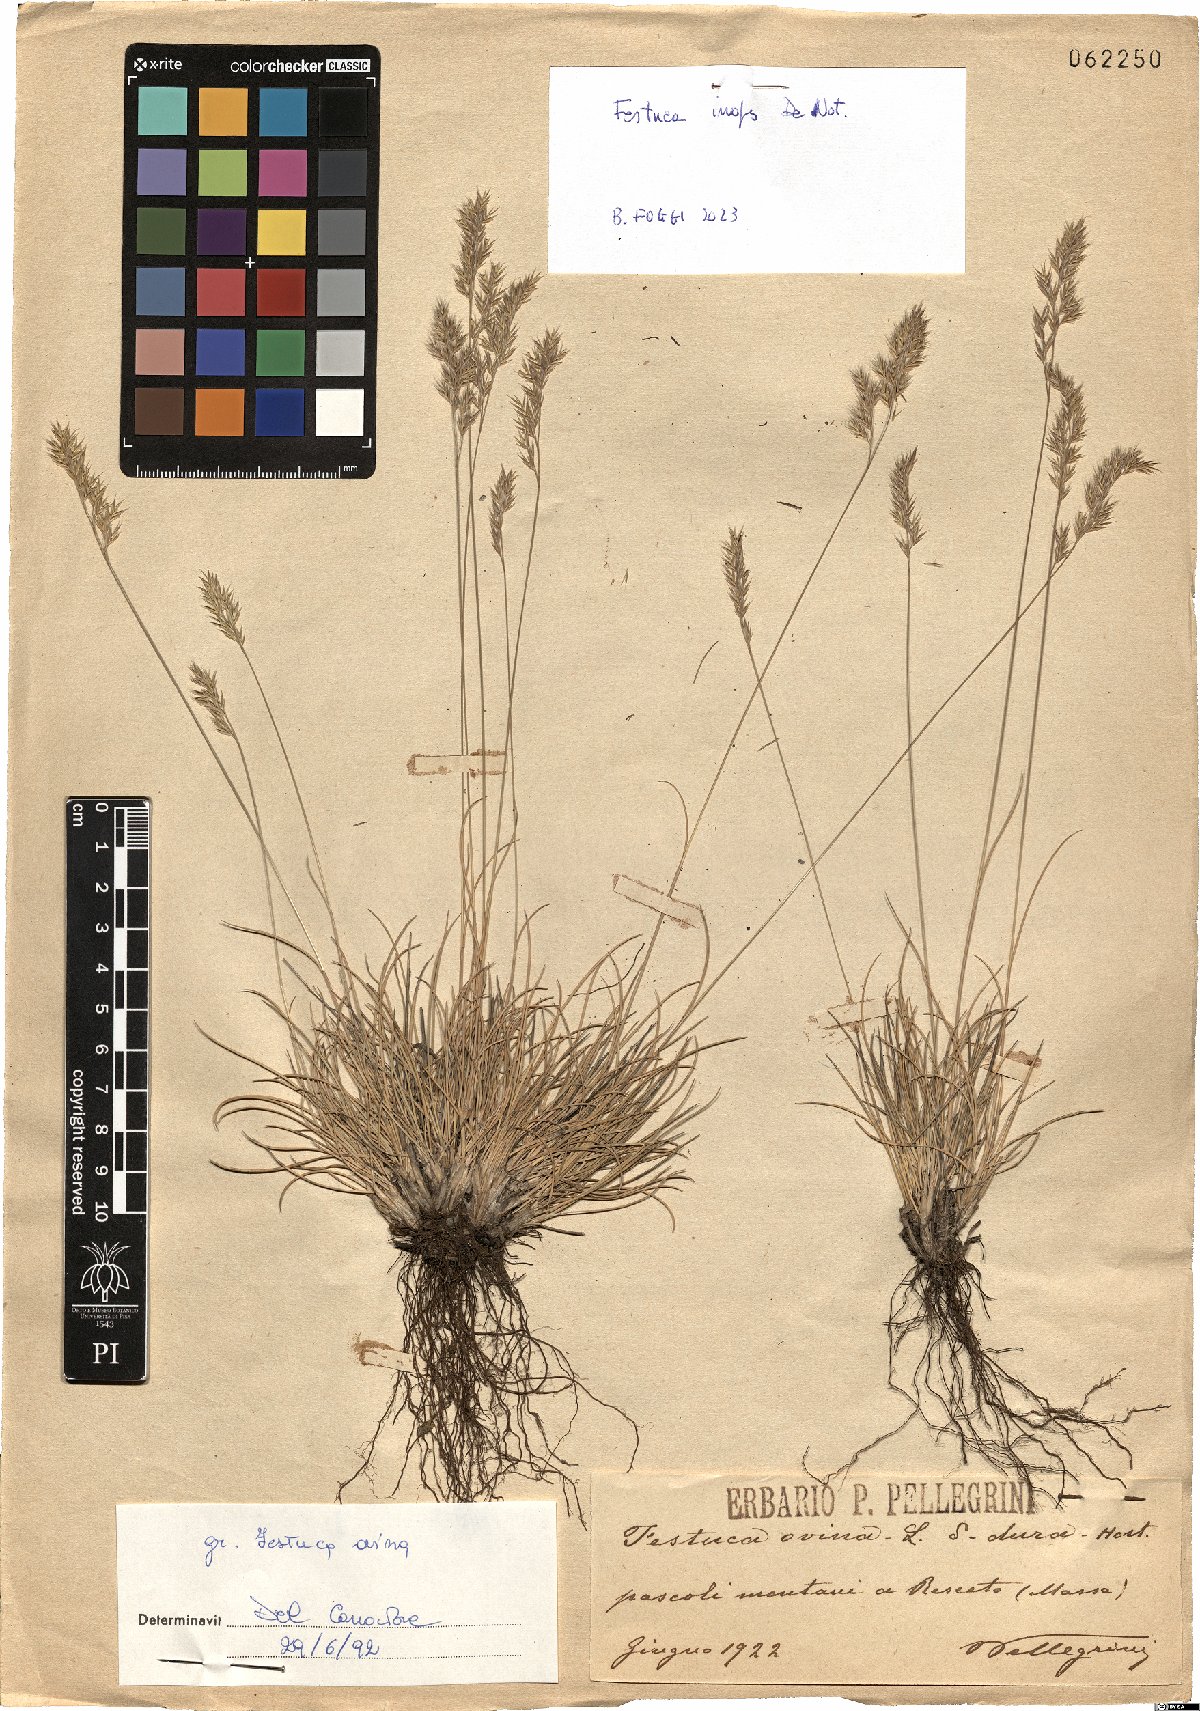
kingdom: Plantae
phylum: Tracheophyta
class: Liliopsida
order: Poales
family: Poaceae
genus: Festuca
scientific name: Festuca inops
